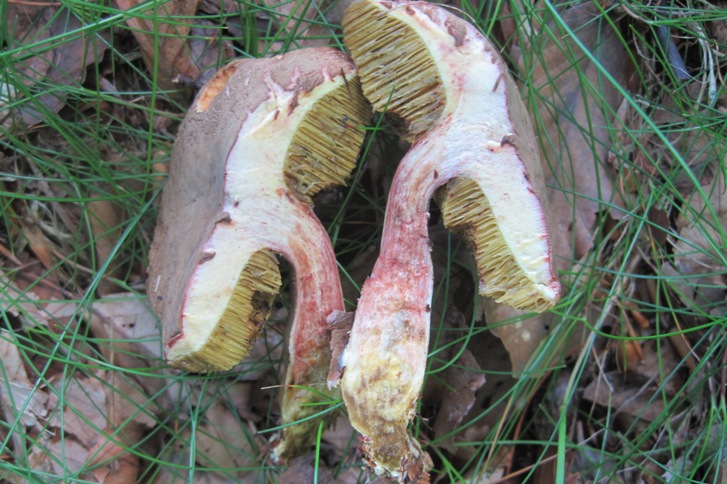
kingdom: Fungi
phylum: Basidiomycota
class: Agaricomycetes
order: Boletales
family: Boletaceae
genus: Xerocomellus
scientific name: Xerocomellus chrysenteron
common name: rødsprukken rørhat
